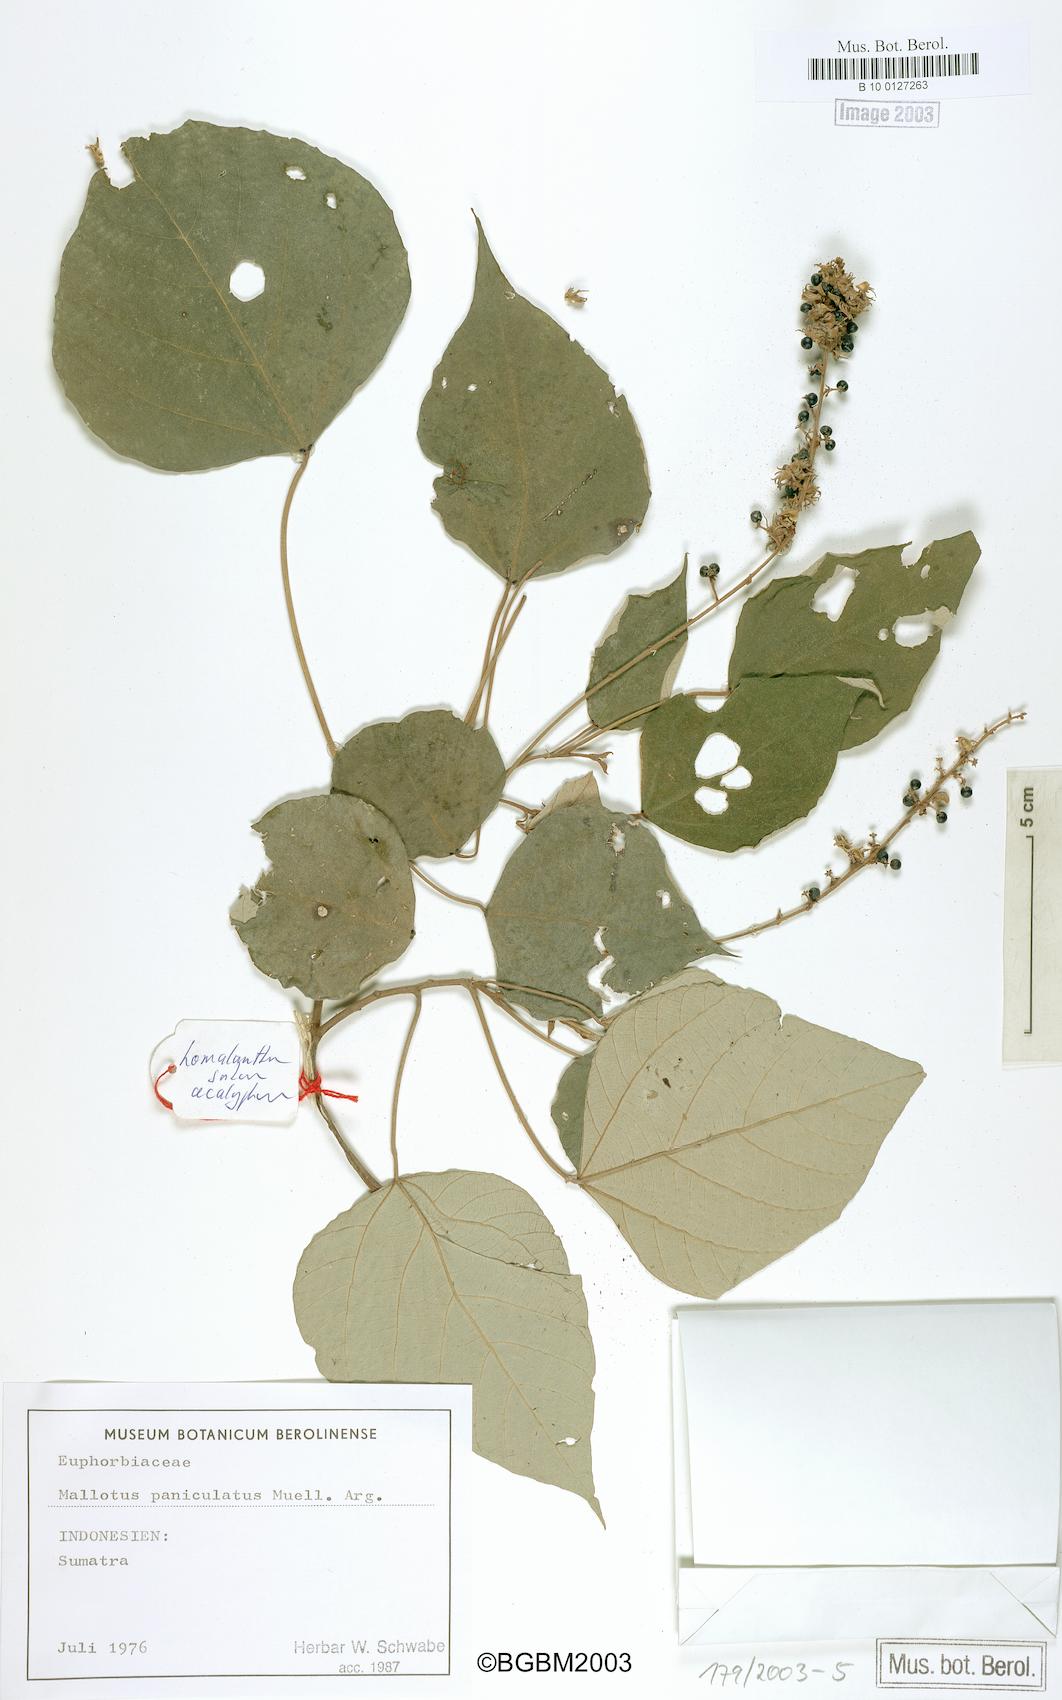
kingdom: Plantae
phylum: Tracheophyta
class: Magnoliopsida
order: Malpighiales
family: Euphorbiaceae
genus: Mallotus
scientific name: Mallotus paniculatus
